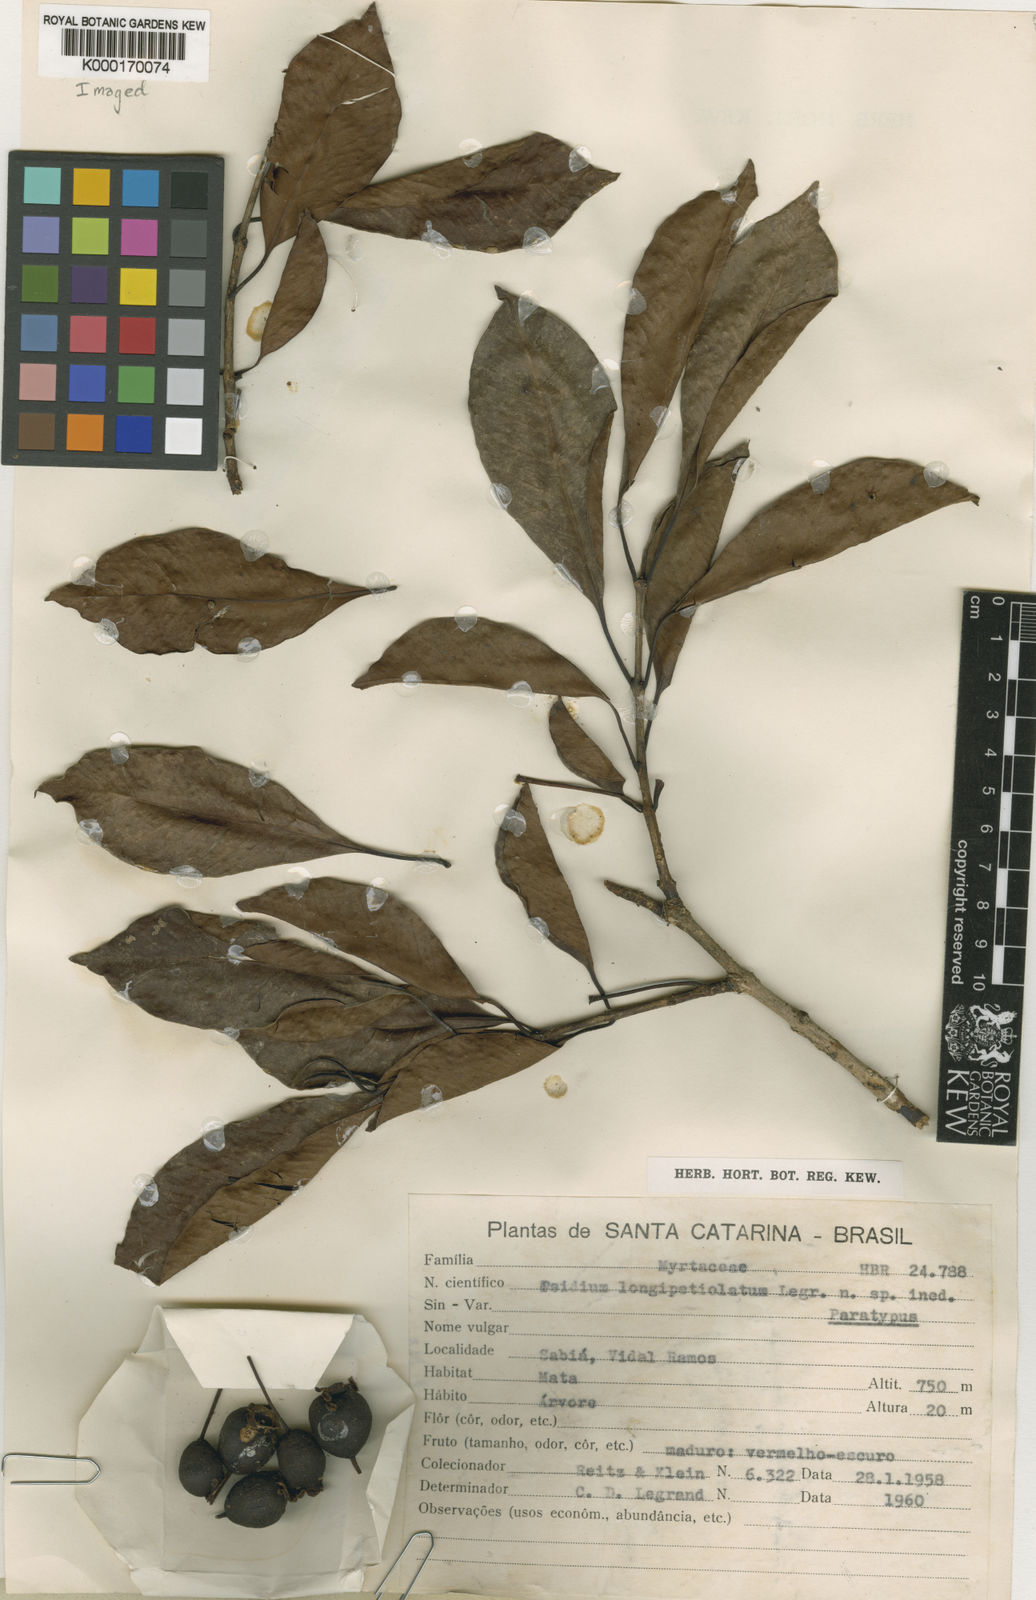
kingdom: Plantae
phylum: Tracheophyta
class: Magnoliopsida
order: Myrtales
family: Myrtaceae
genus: Psidium
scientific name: Psidium longipetiolatum
